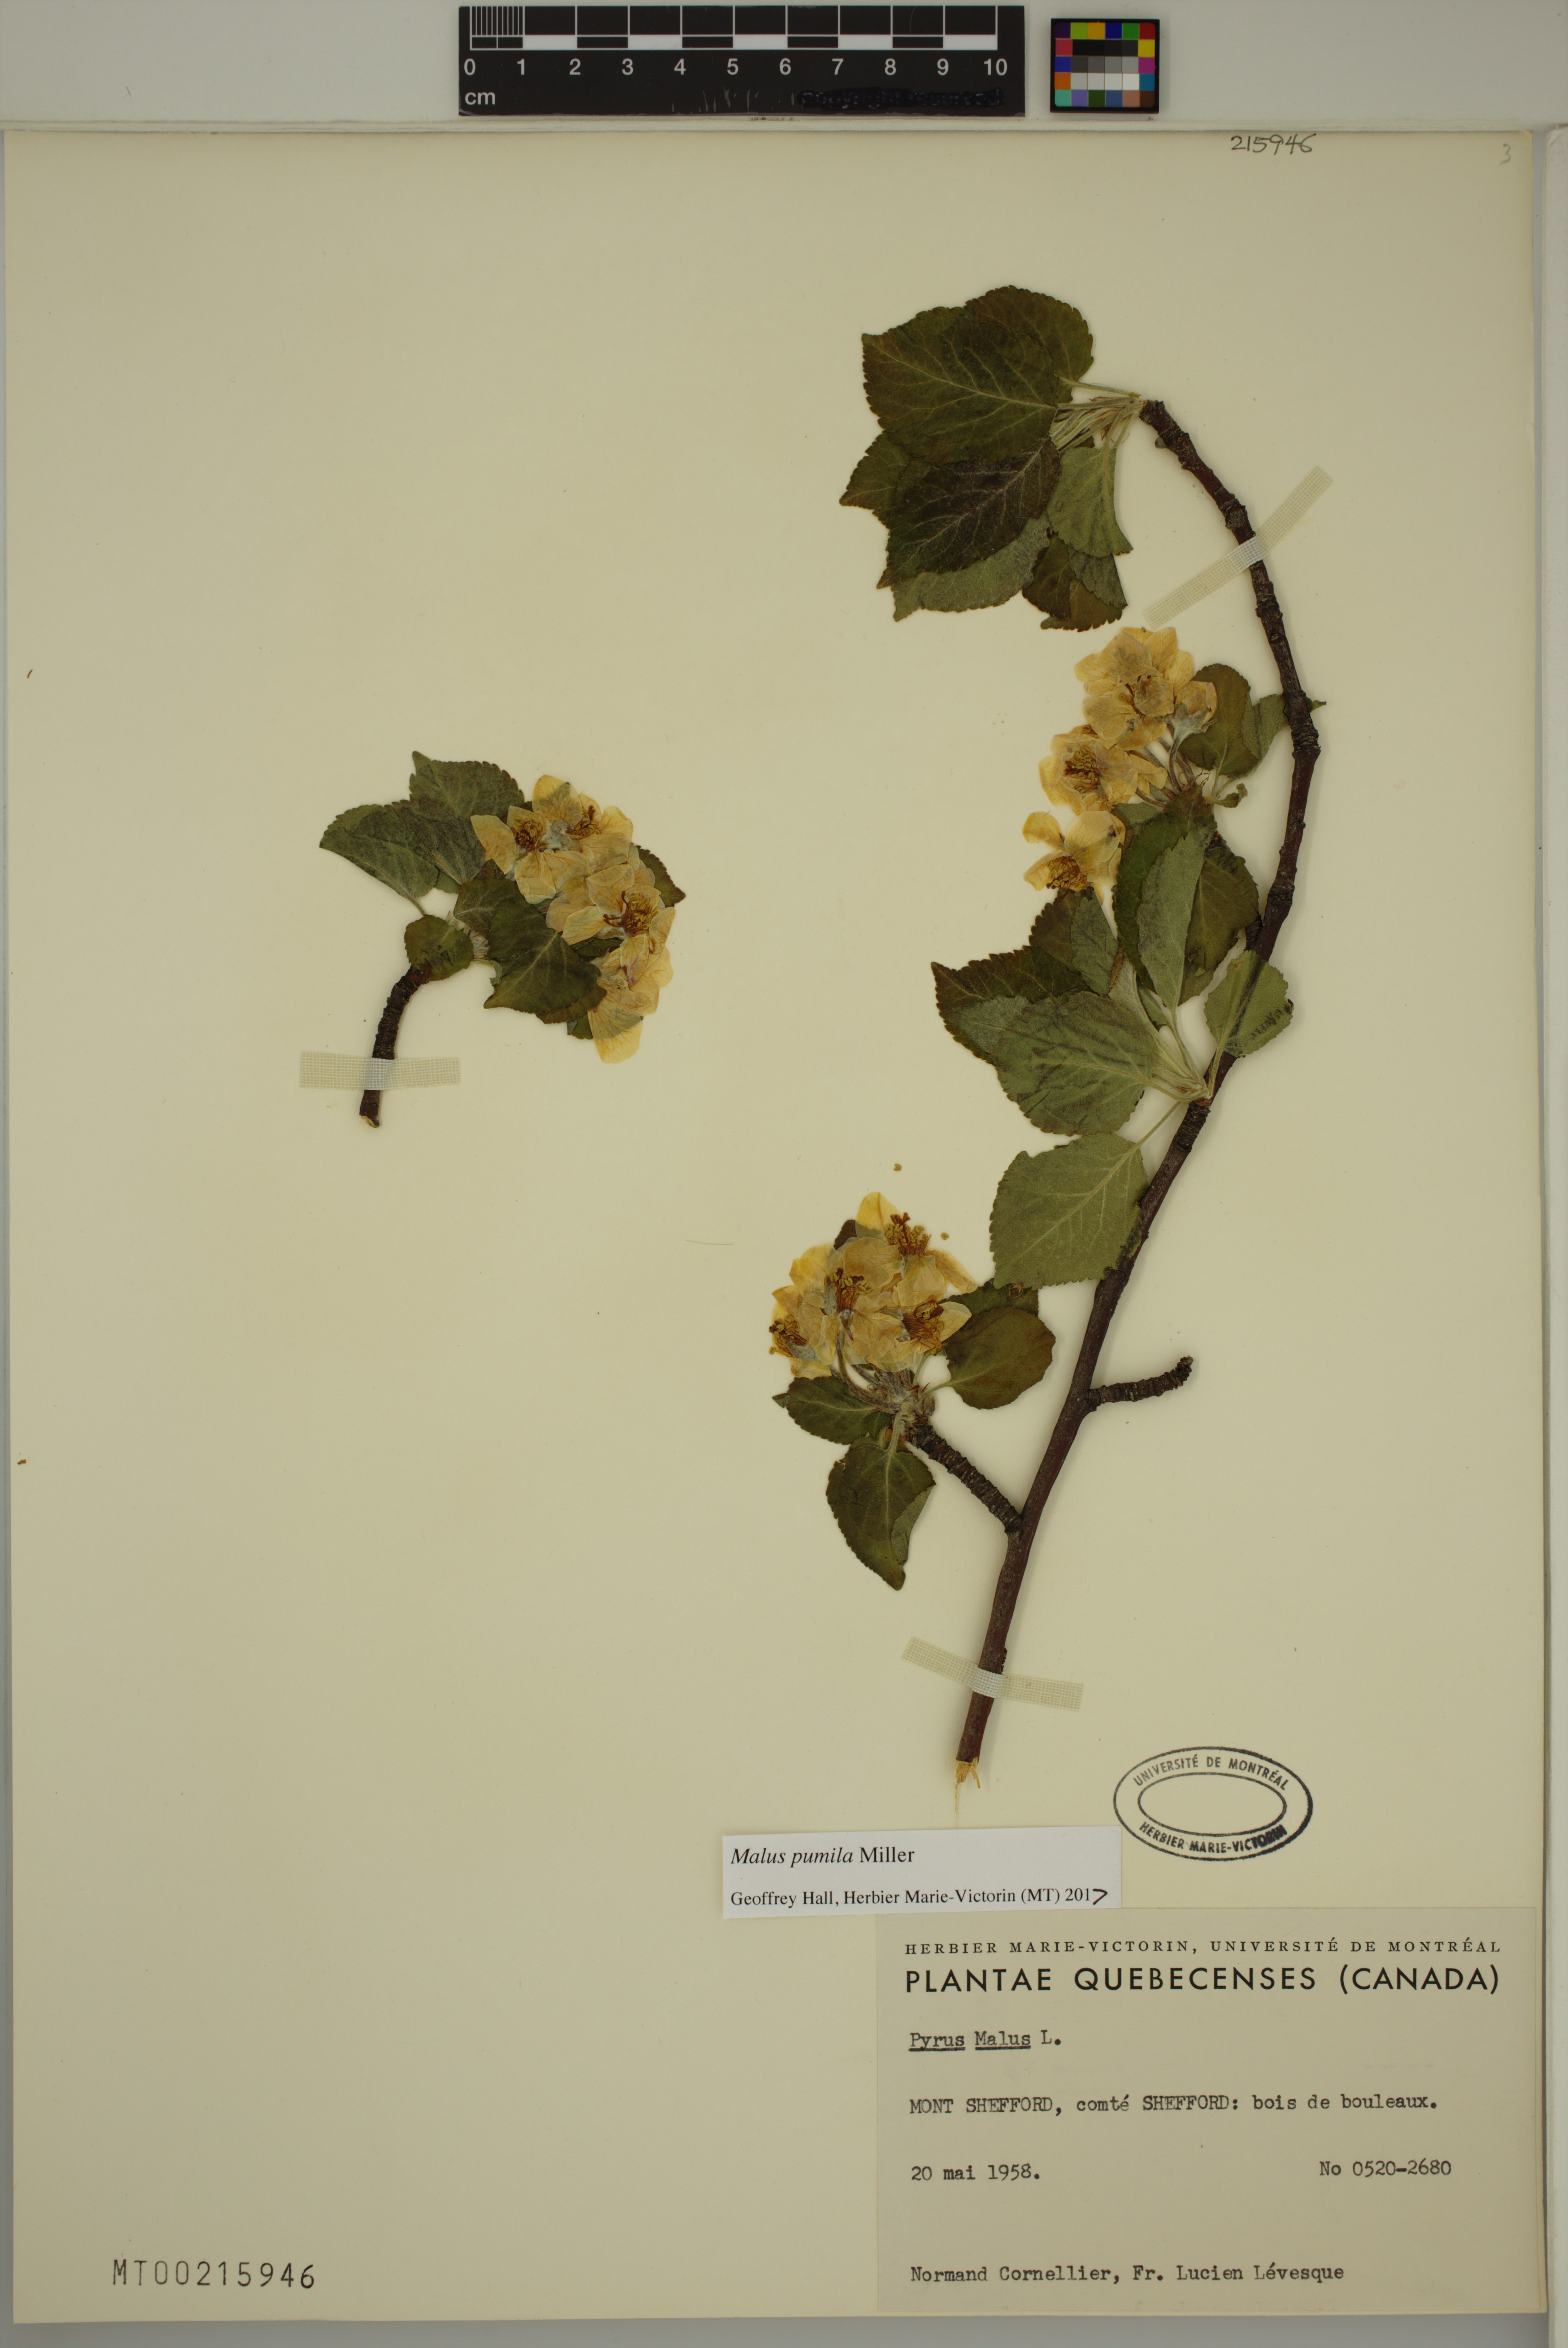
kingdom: Plantae
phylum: Tracheophyta
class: Magnoliopsida
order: Rosales
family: Rosaceae
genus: Malus
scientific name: Malus domestica
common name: Apple
